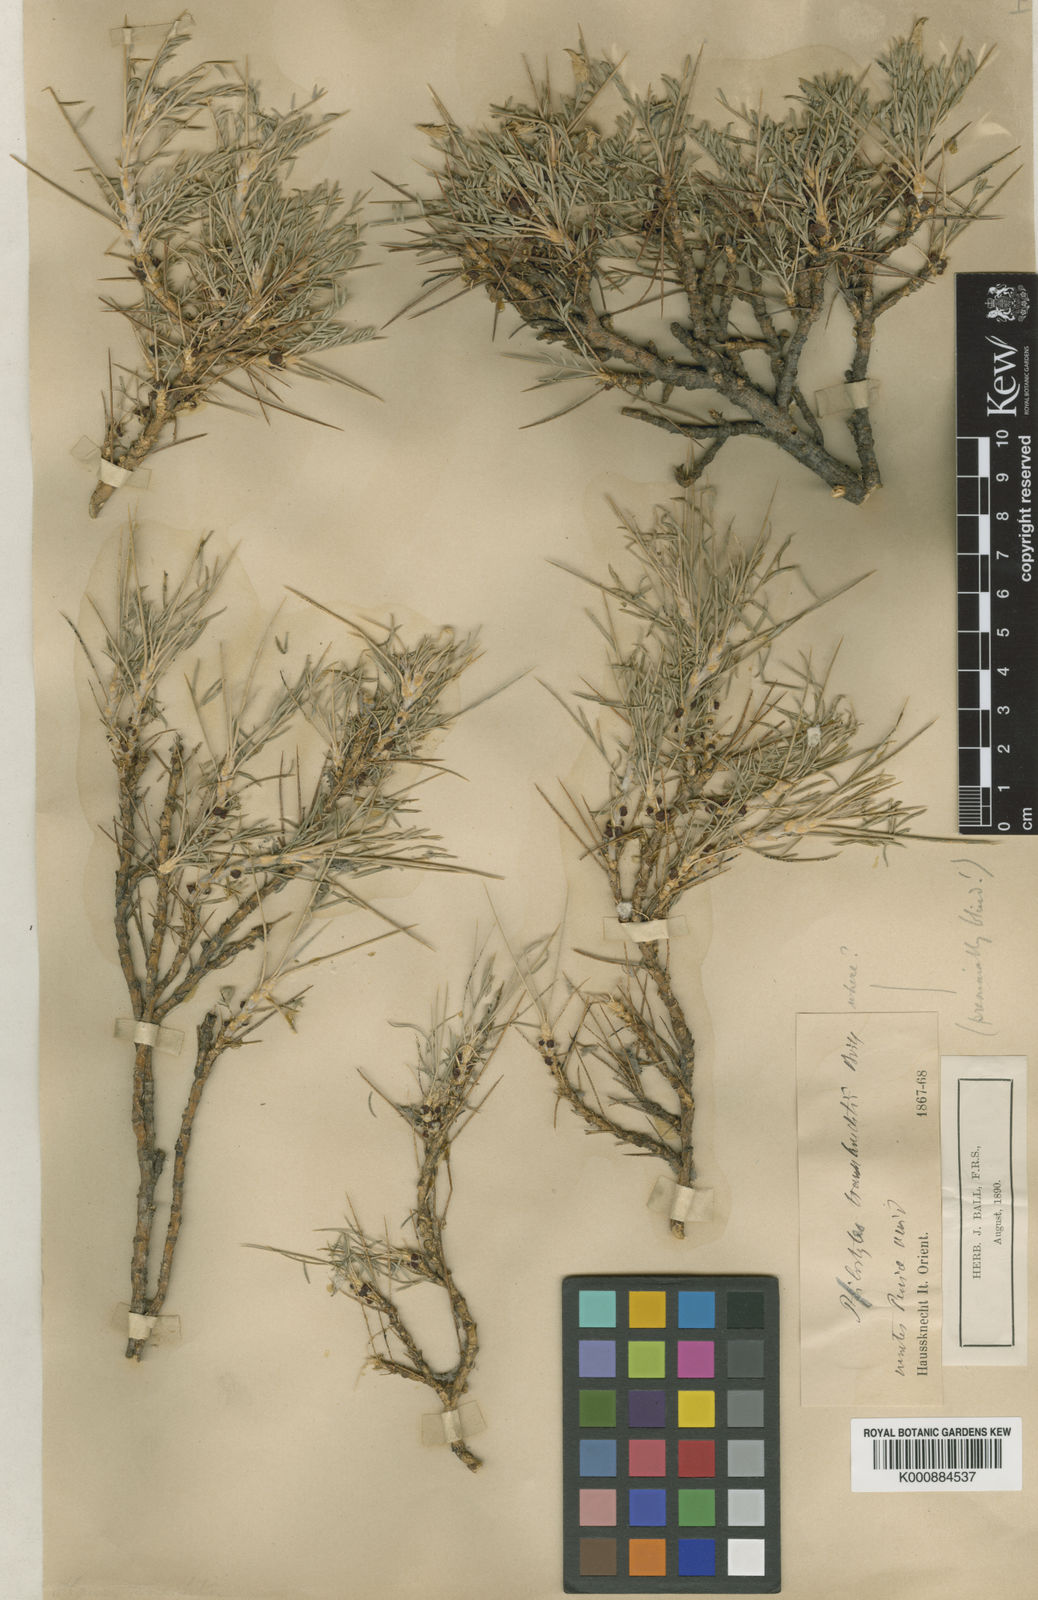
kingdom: Plantae
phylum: Tracheophyta
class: Magnoliopsida
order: Cucurbitales
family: Apodanthaceae
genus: Pilostyles
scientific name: Pilostyles haussknechtii
